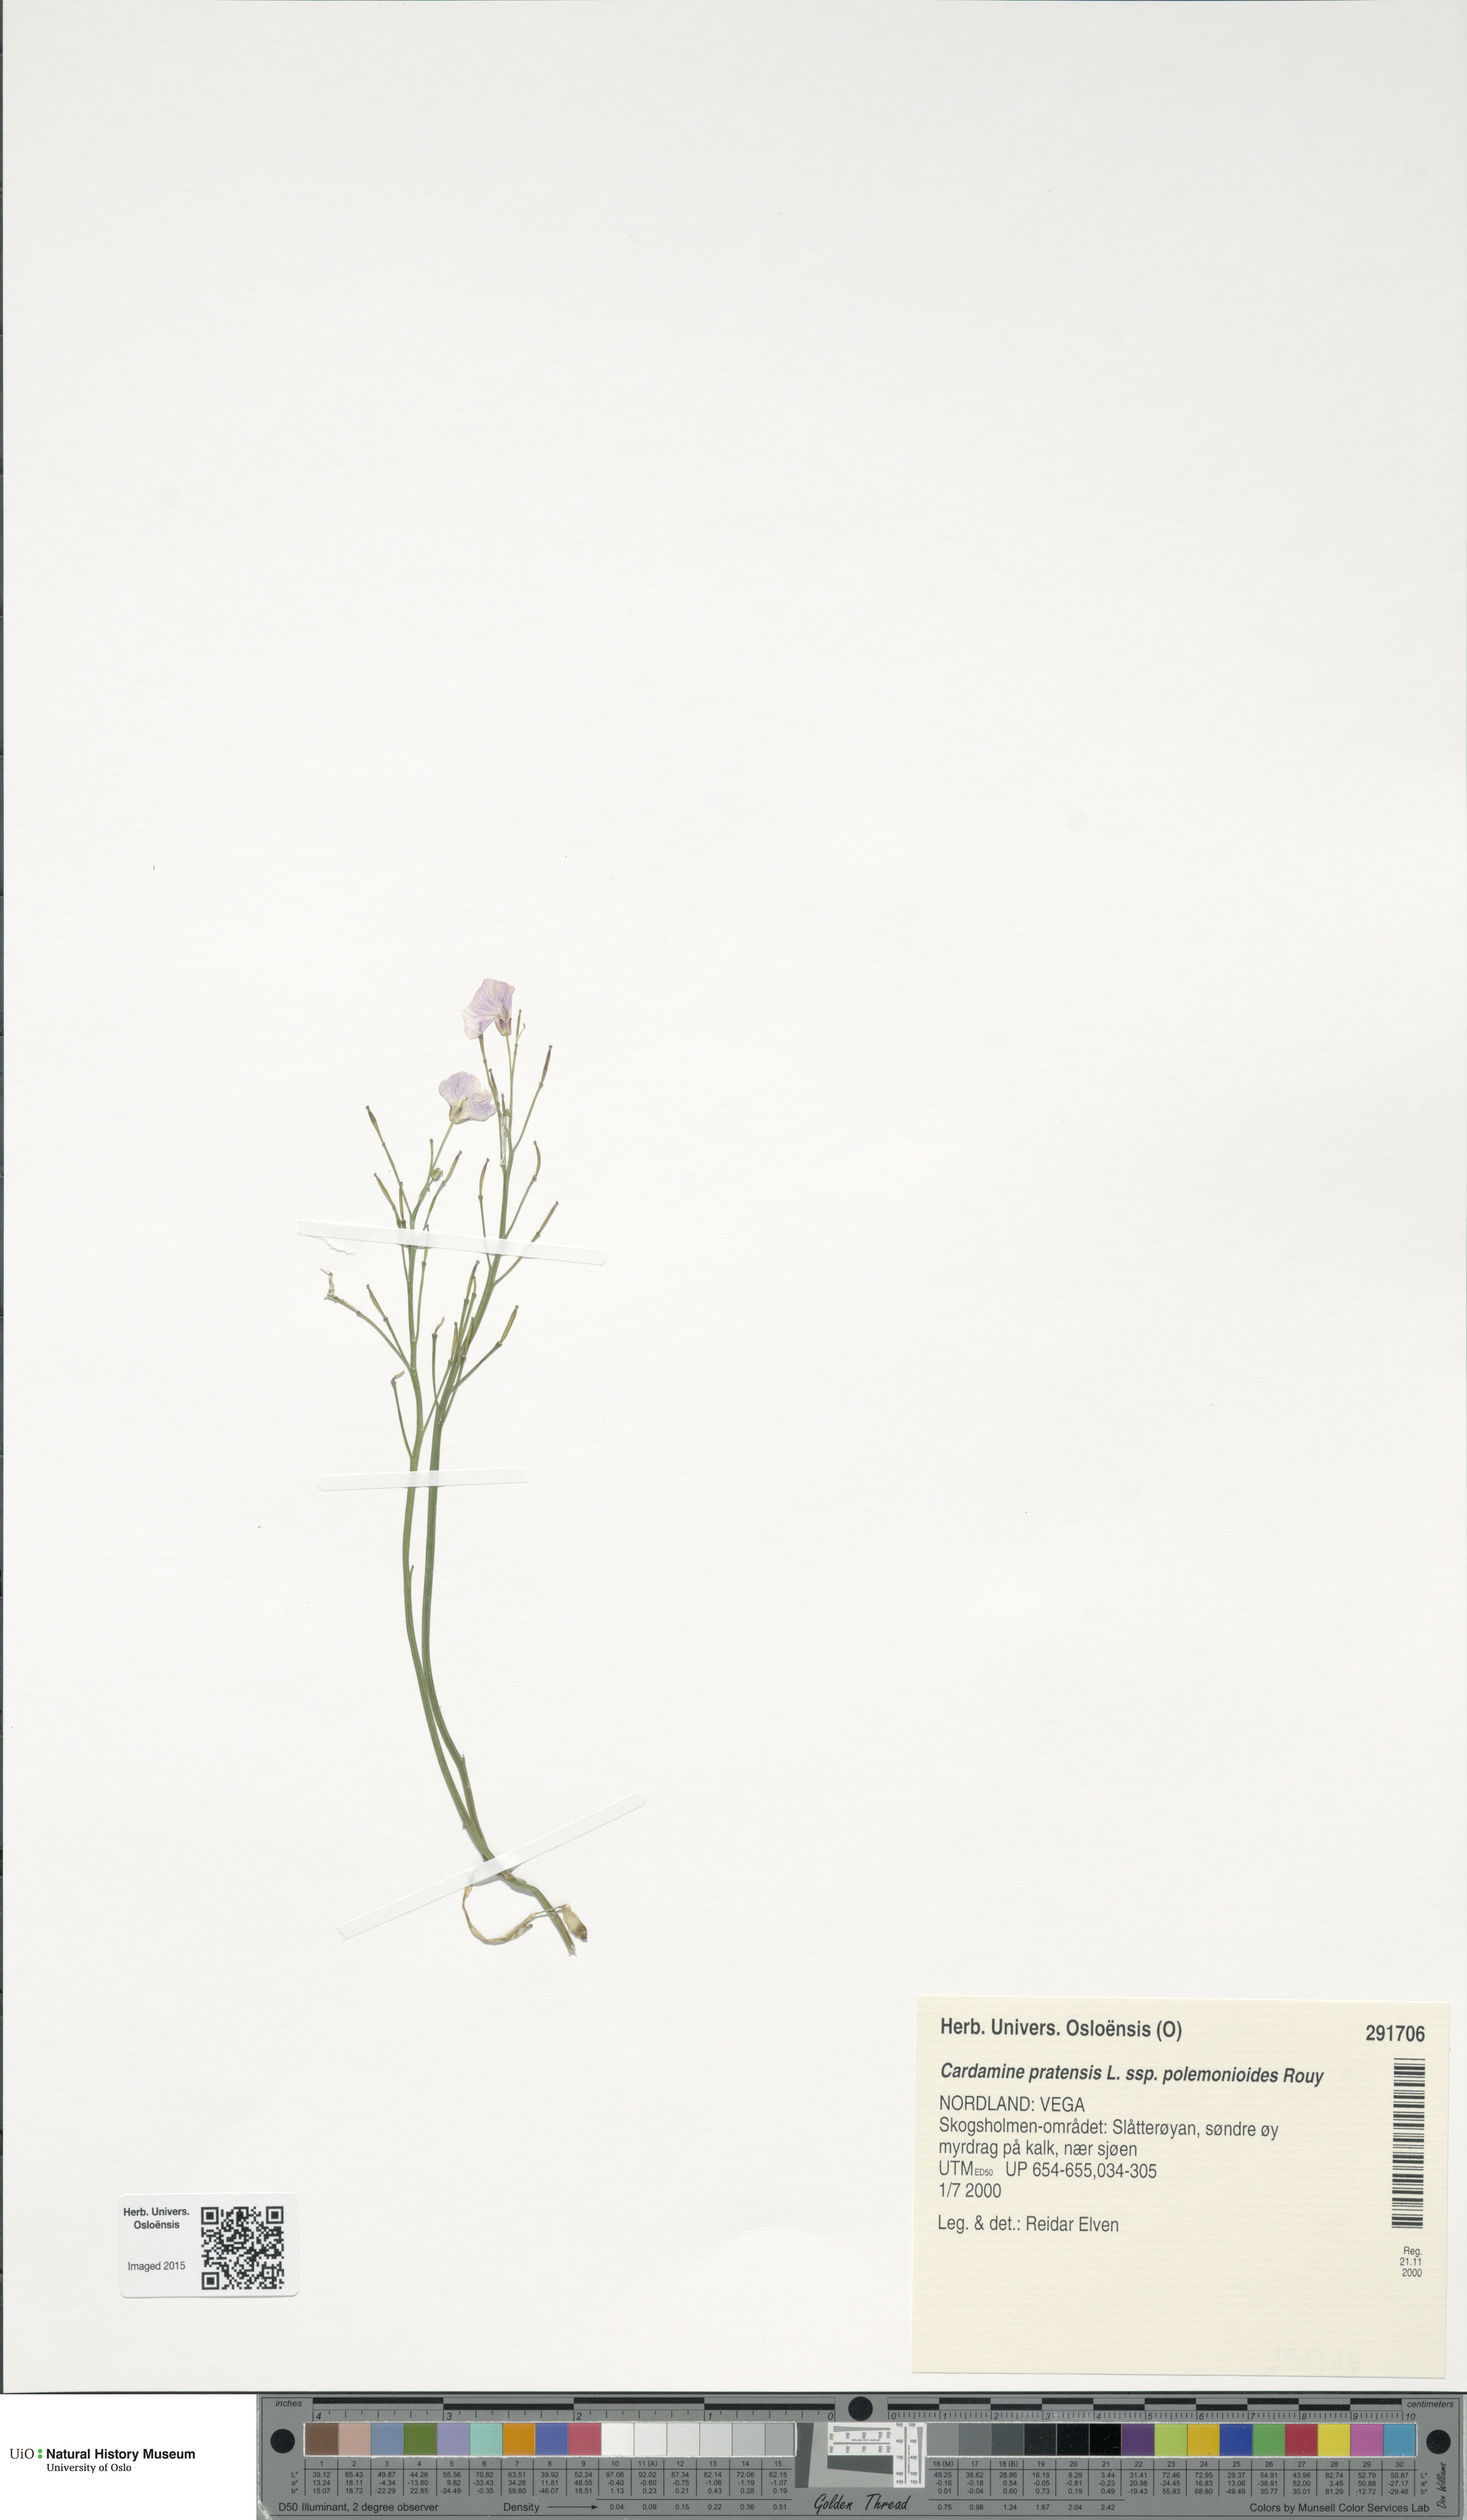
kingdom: Plantae
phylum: Tracheophyta
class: Magnoliopsida
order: Brassicales
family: Brassicaceae
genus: Cardamine
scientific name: Cardamine nymanii
